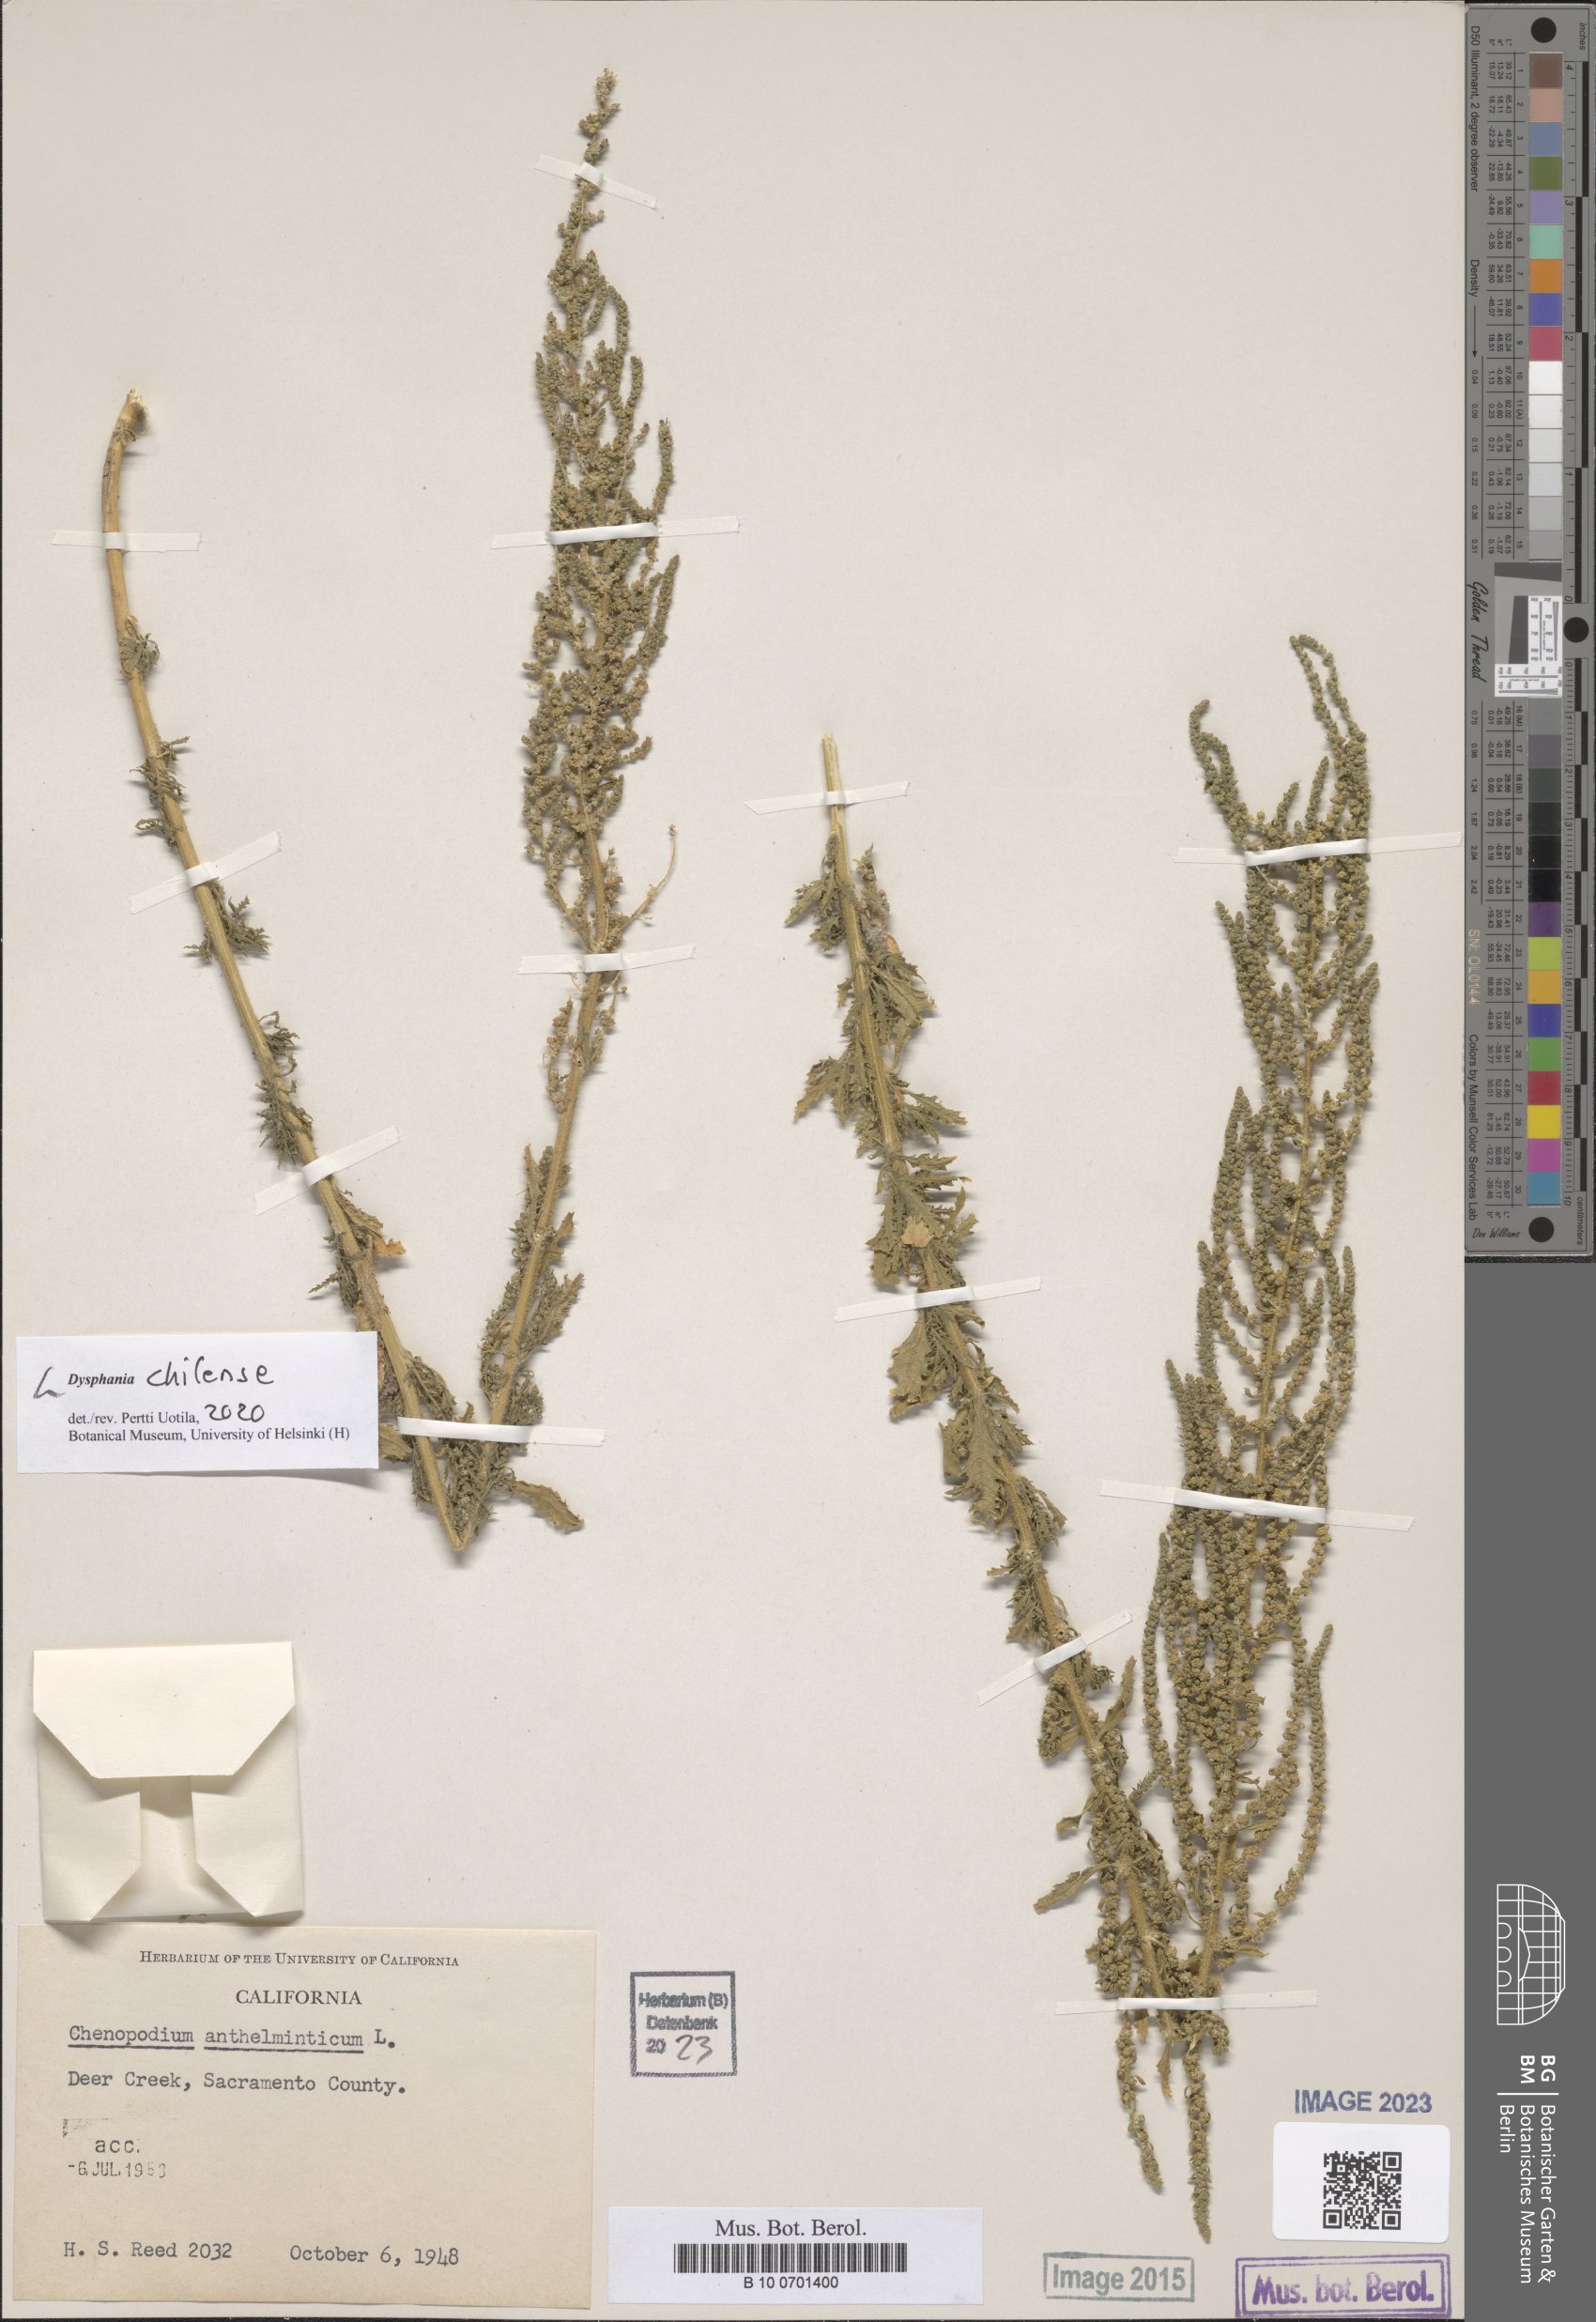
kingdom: Plantae
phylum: Tracheophyta
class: Magnoliopsida
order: Caryophyllales
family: Amaranthaceae
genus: Dysphania
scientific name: Dysphania chilensis
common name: Chilean wormseed
